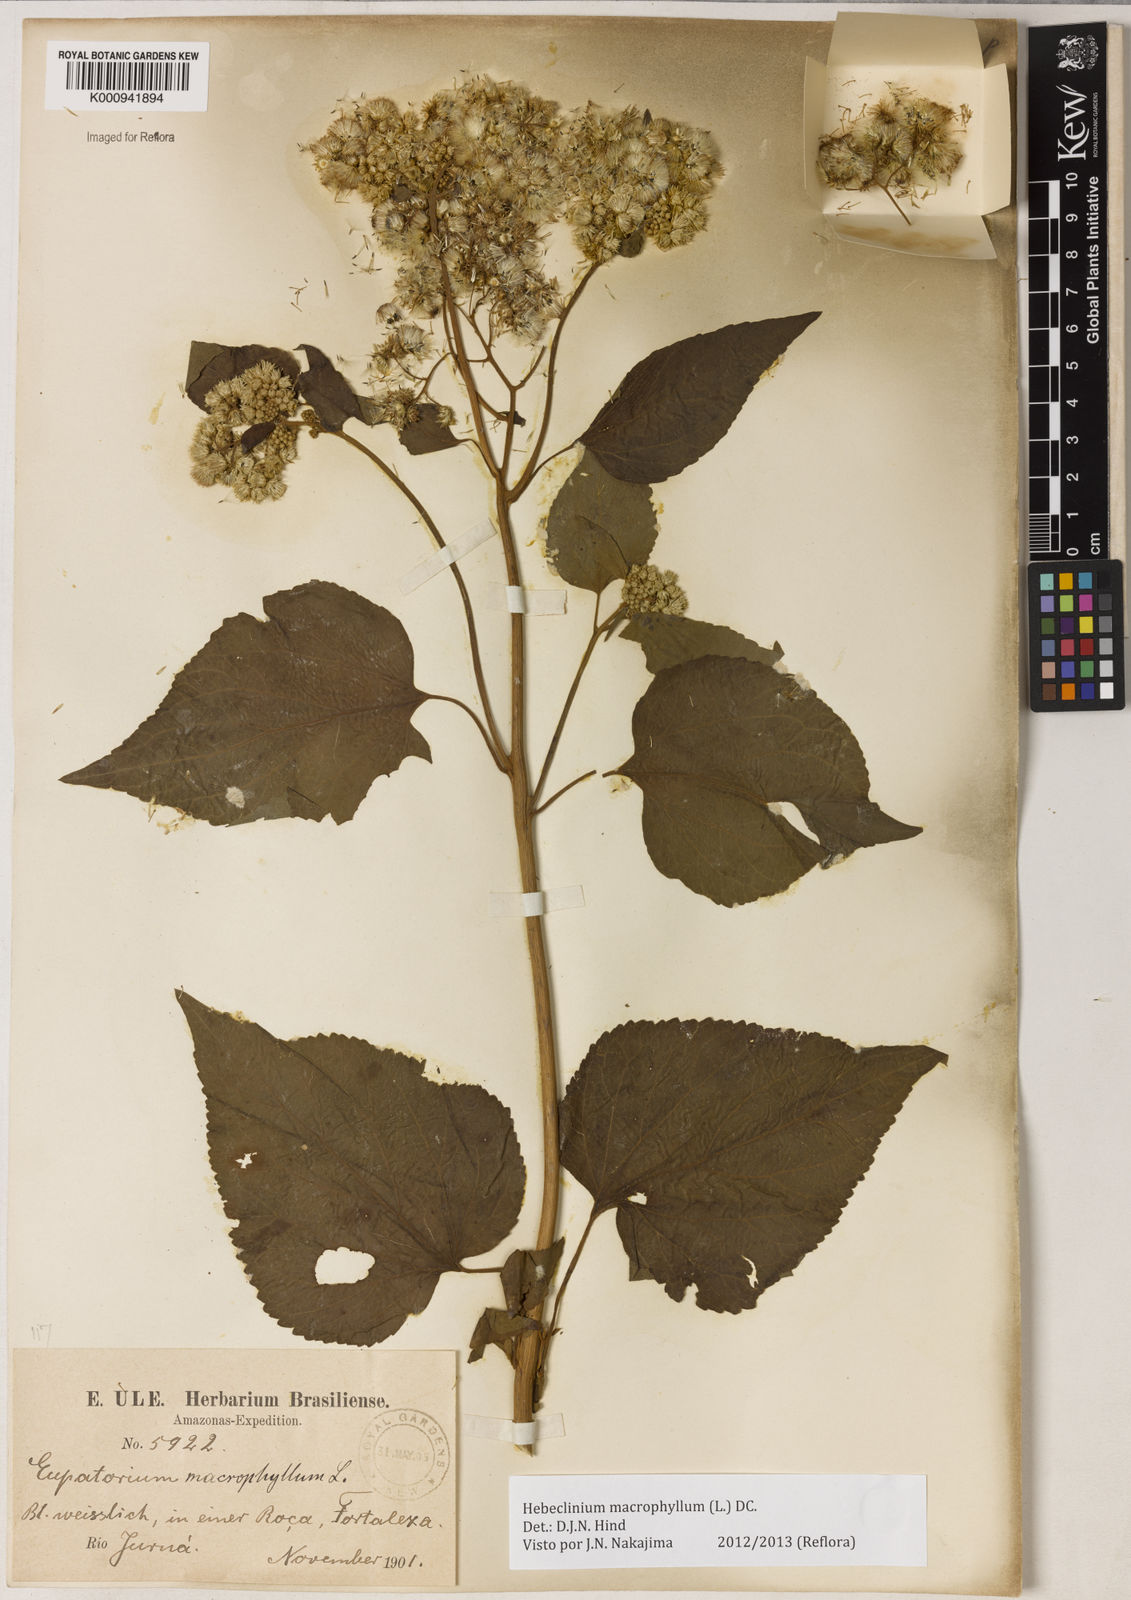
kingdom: Plantae
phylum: Tracheophyta
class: Magnoliopsida
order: Asterales
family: Asteraceae
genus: Hebeclinium
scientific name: Hebeclinium macrophyllum
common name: Largeleaf thoroughwort
